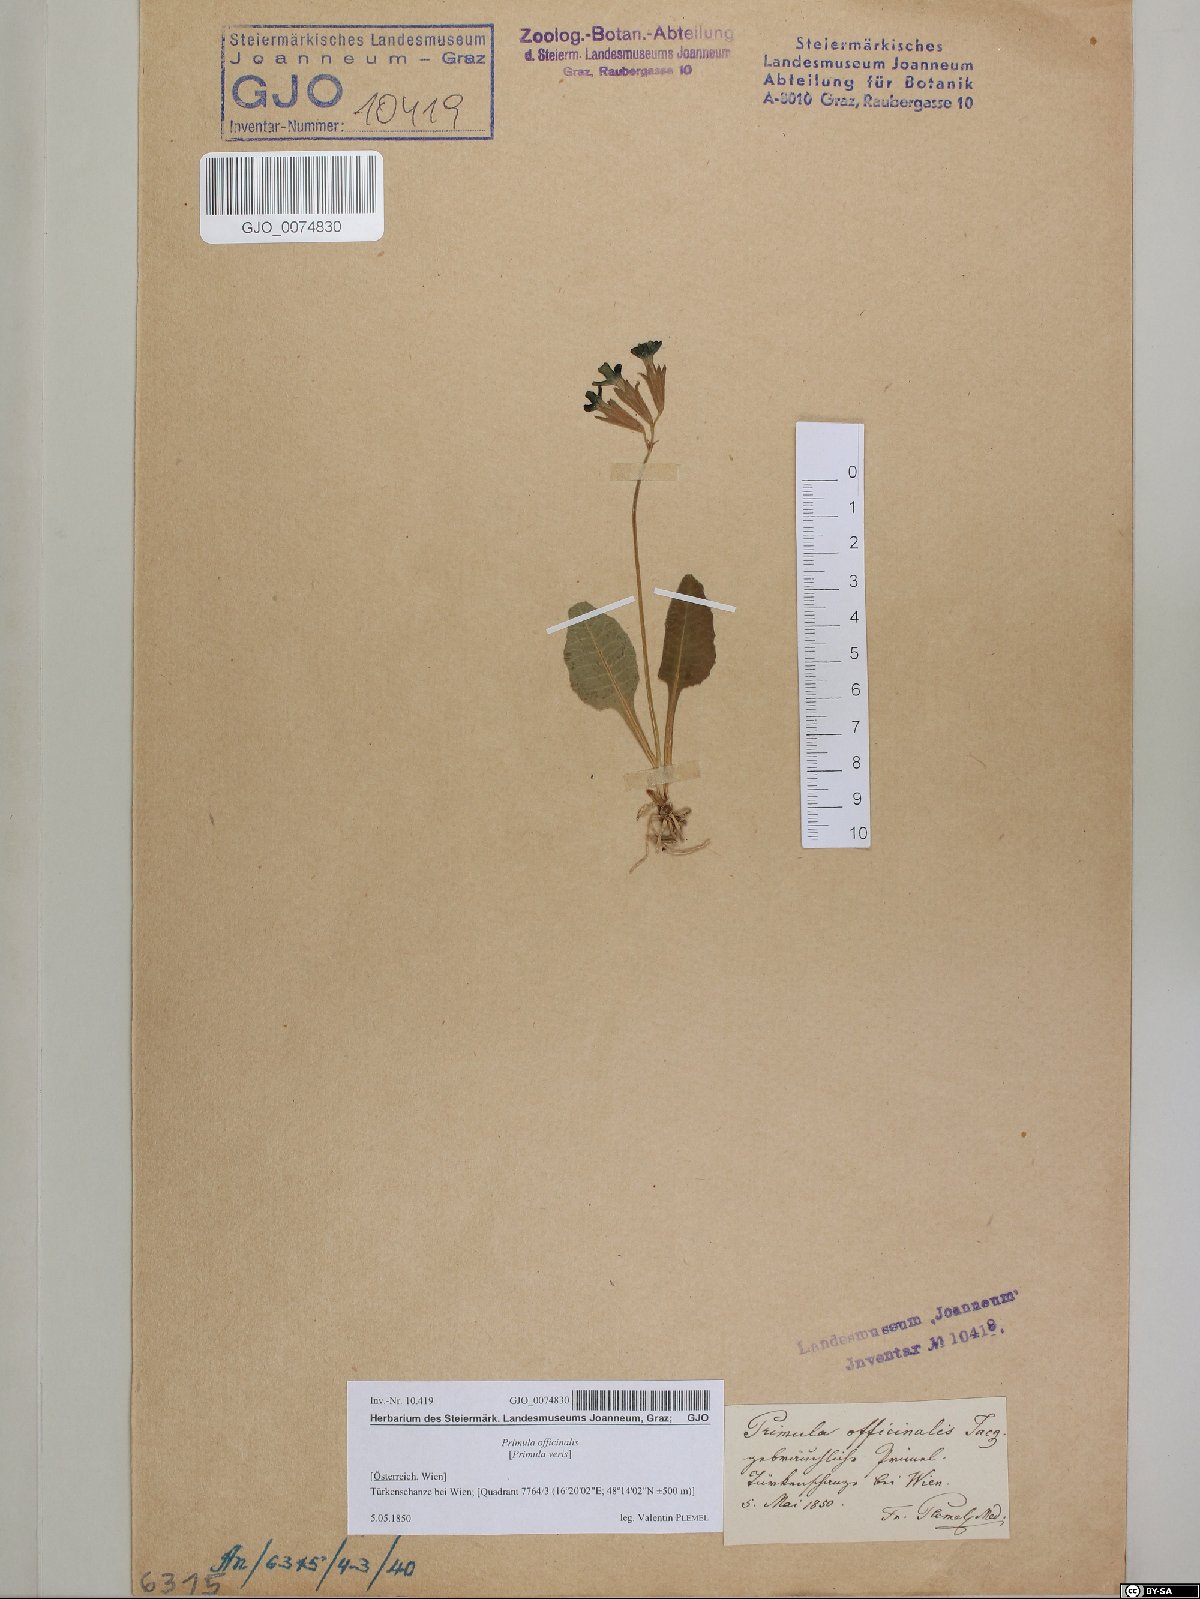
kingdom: Plantae
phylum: Tracheophyta
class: Magnoliopsida
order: Ericales
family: Primulaceae
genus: Primula
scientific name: Primula veris
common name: Cowslip
